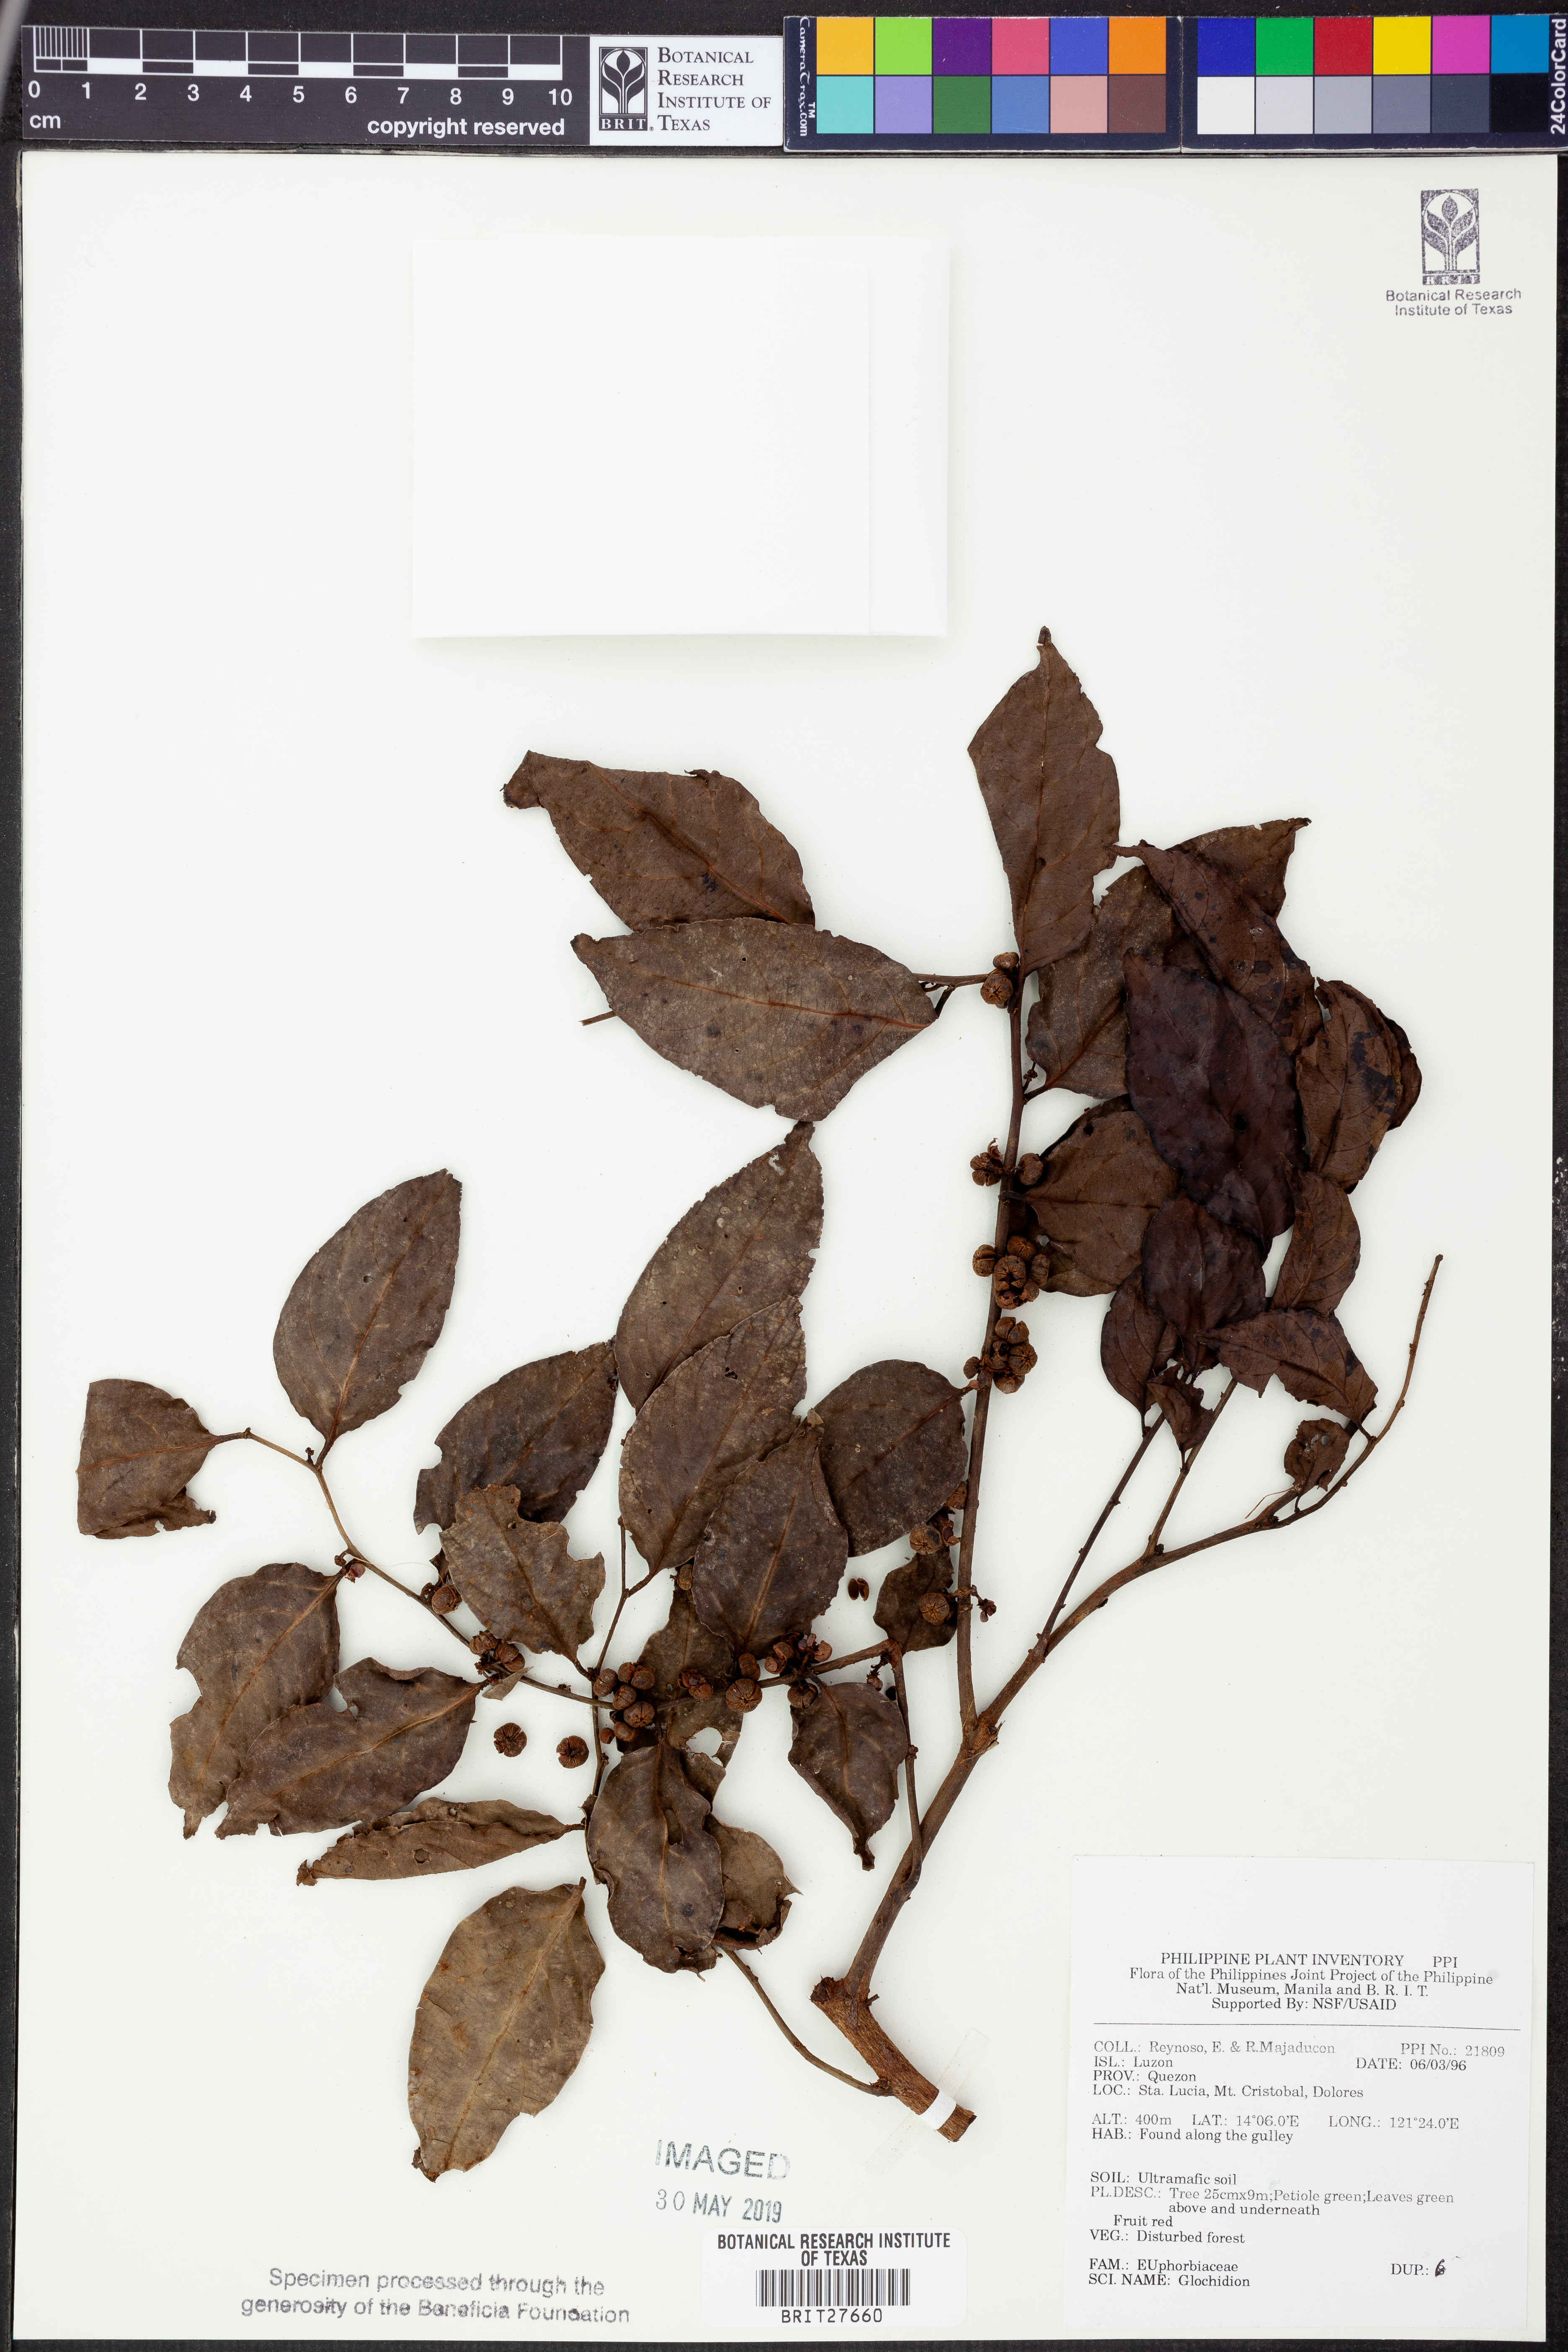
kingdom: Plantae
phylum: Tracheophyta
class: Magnoliopsida
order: Malpighiales
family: Phyllanthaceae
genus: Glochidion
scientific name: Glochidion
